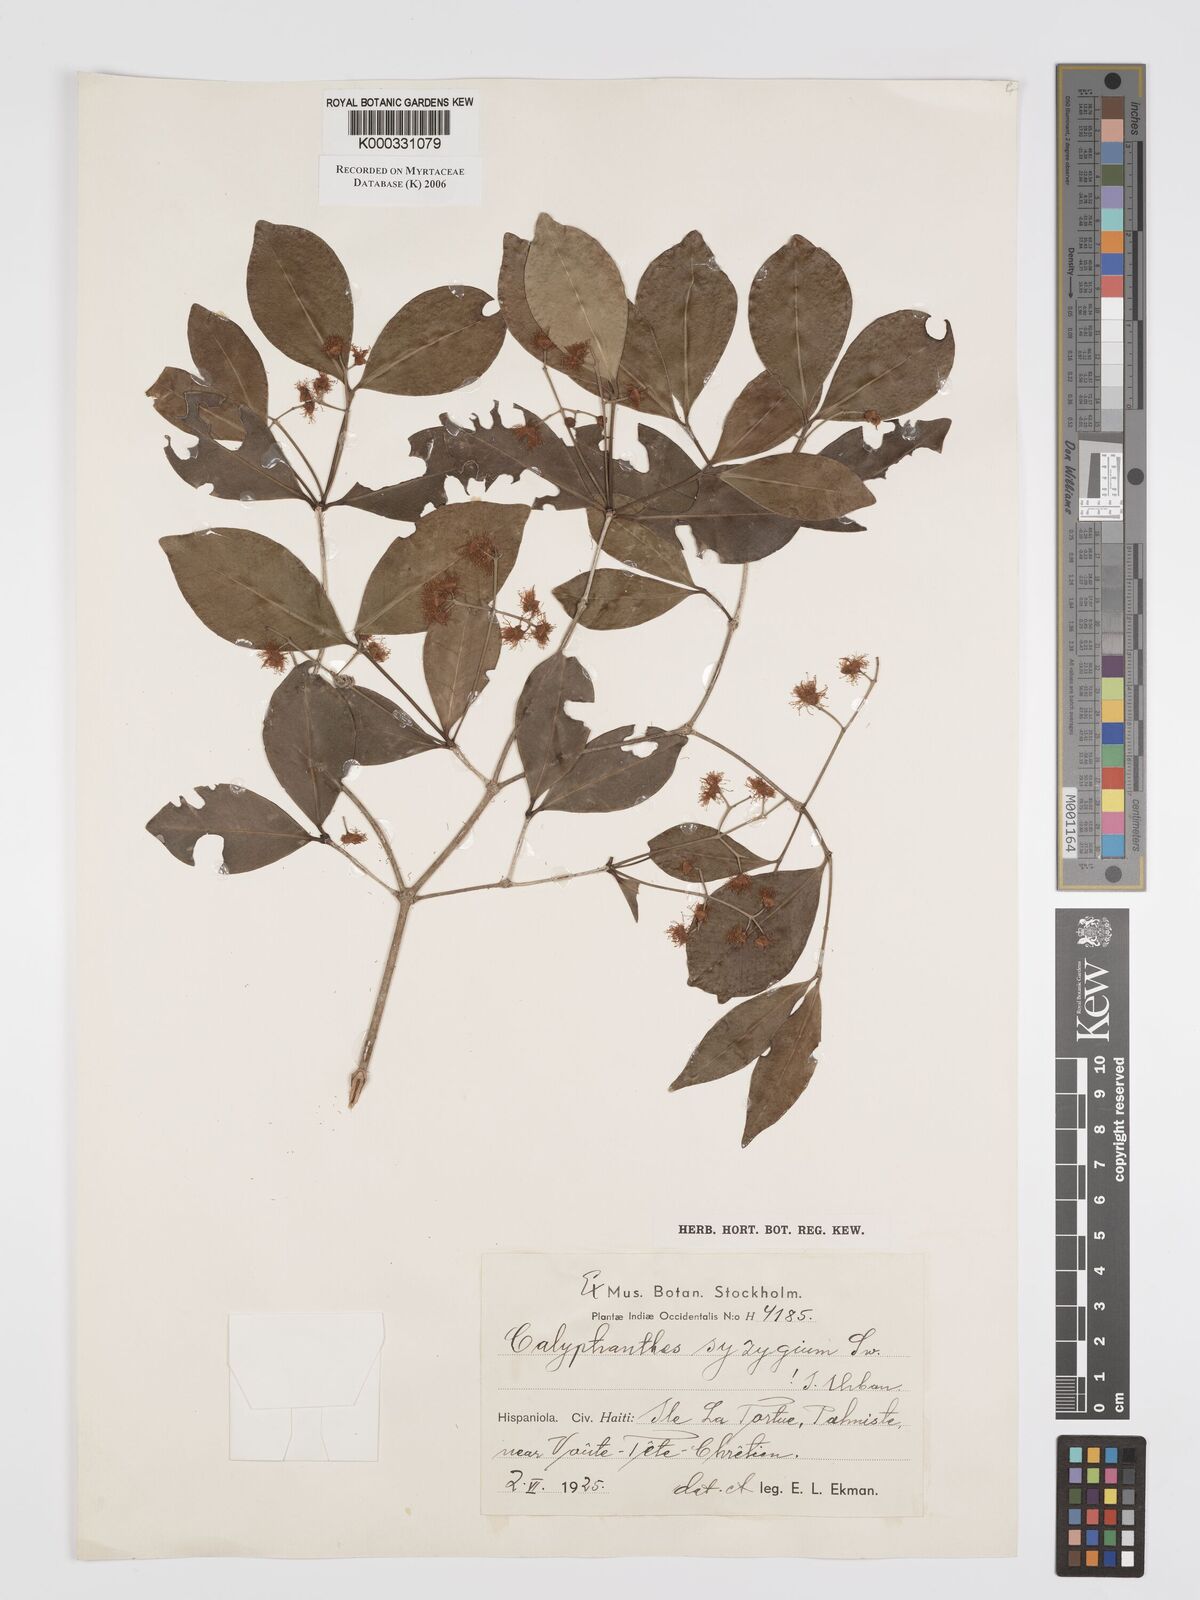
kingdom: Plantae
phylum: Tracheophyta
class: Magnoliopsida
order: Myrtales
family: Myrtaceae
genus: Myrcia
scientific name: Myrcia chytraculia
